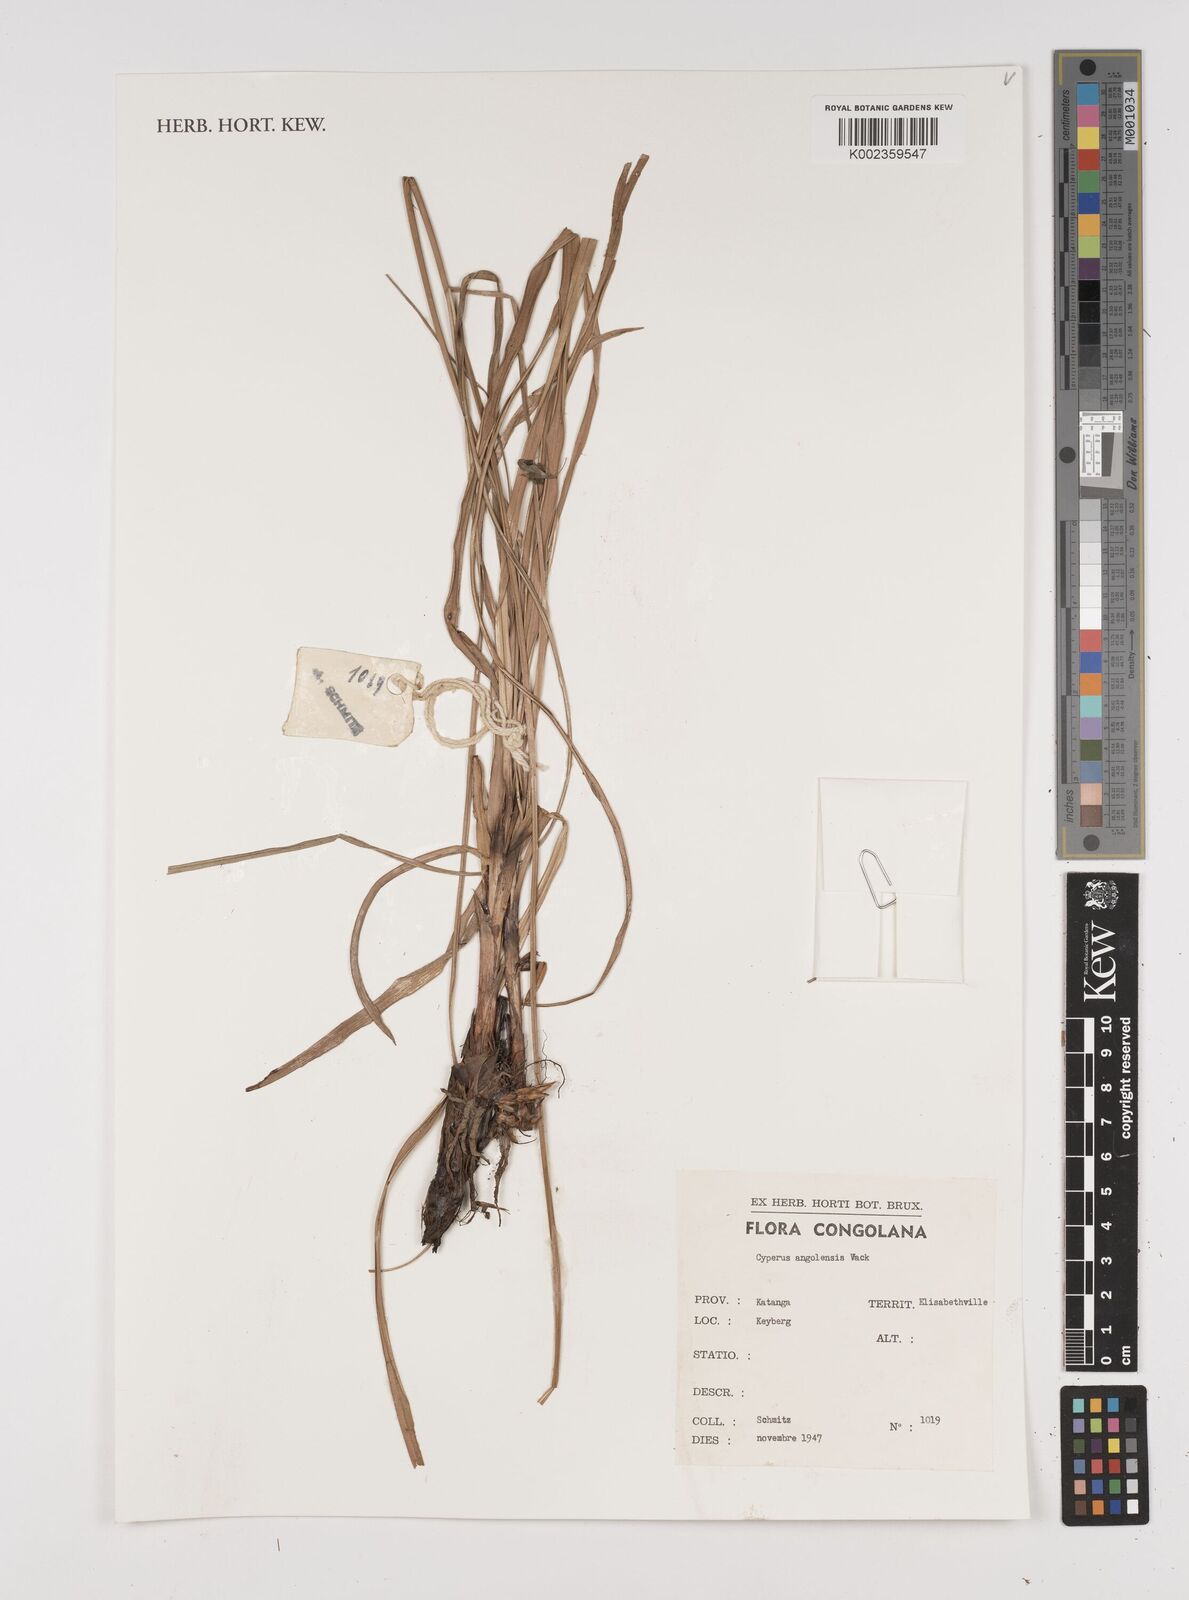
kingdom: Plantae
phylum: Tracheophyta
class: Liliopsida
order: Poales
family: Cyperaceae
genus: Cyperus
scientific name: Cyperus angolensis
